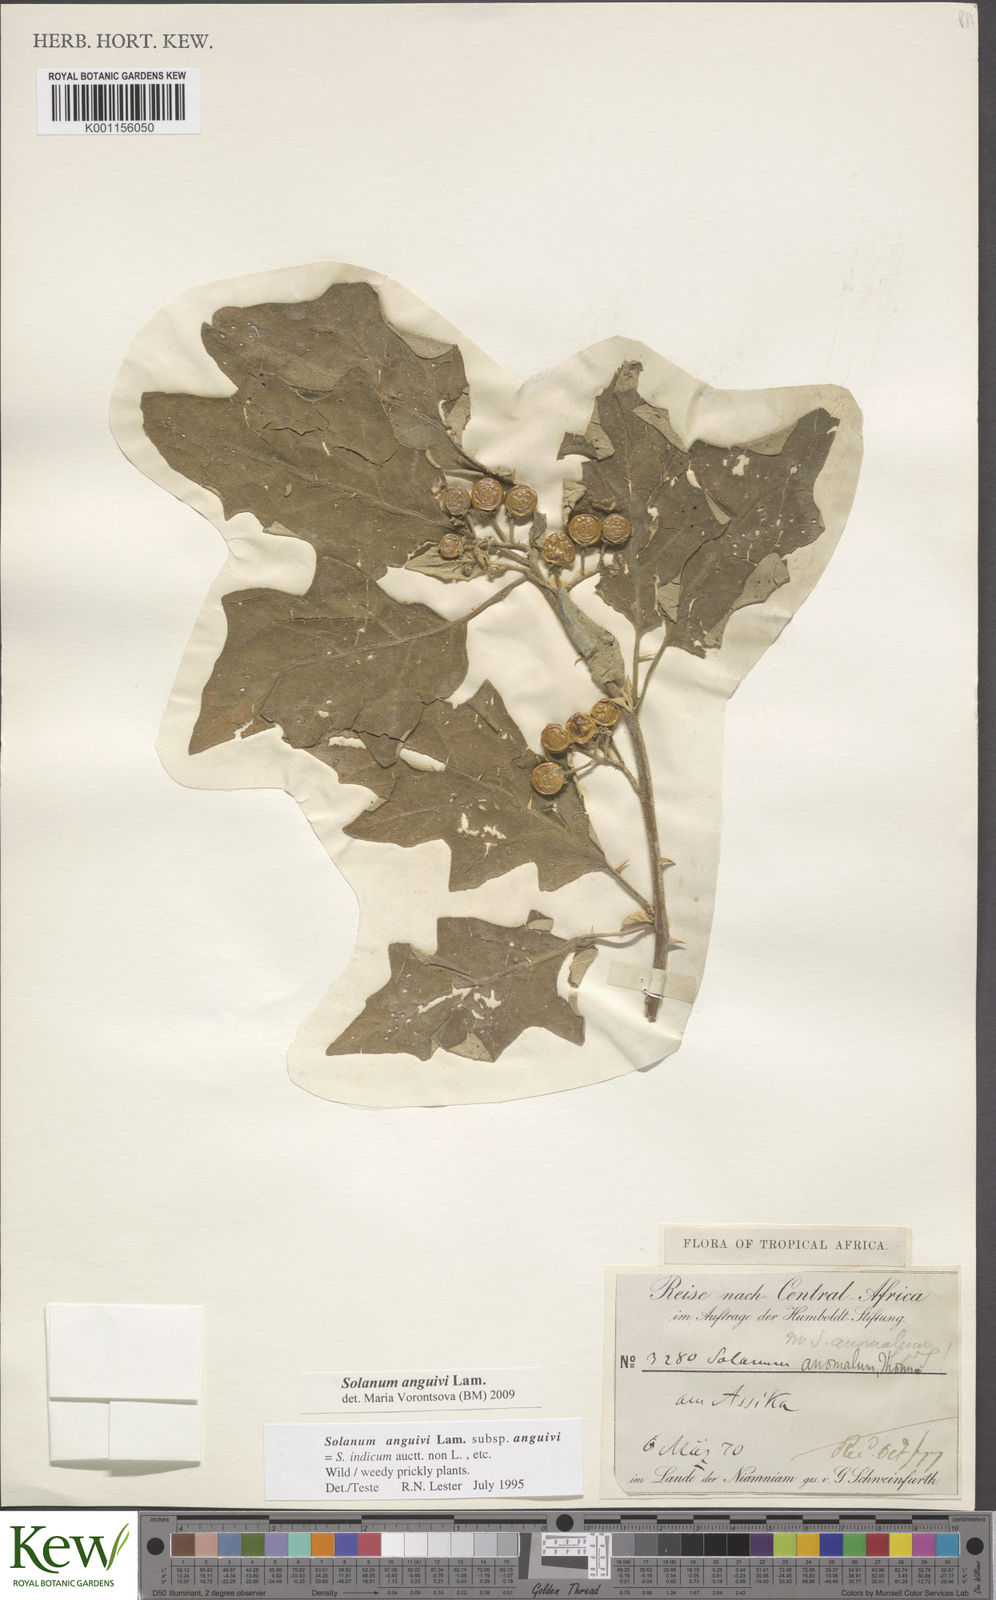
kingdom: Plantae
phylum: Tracheophyta
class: Magnoliopsida
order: Solanales
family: Solanaceae
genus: Solanum
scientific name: Solanum anguivi
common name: Forest bitterberry
